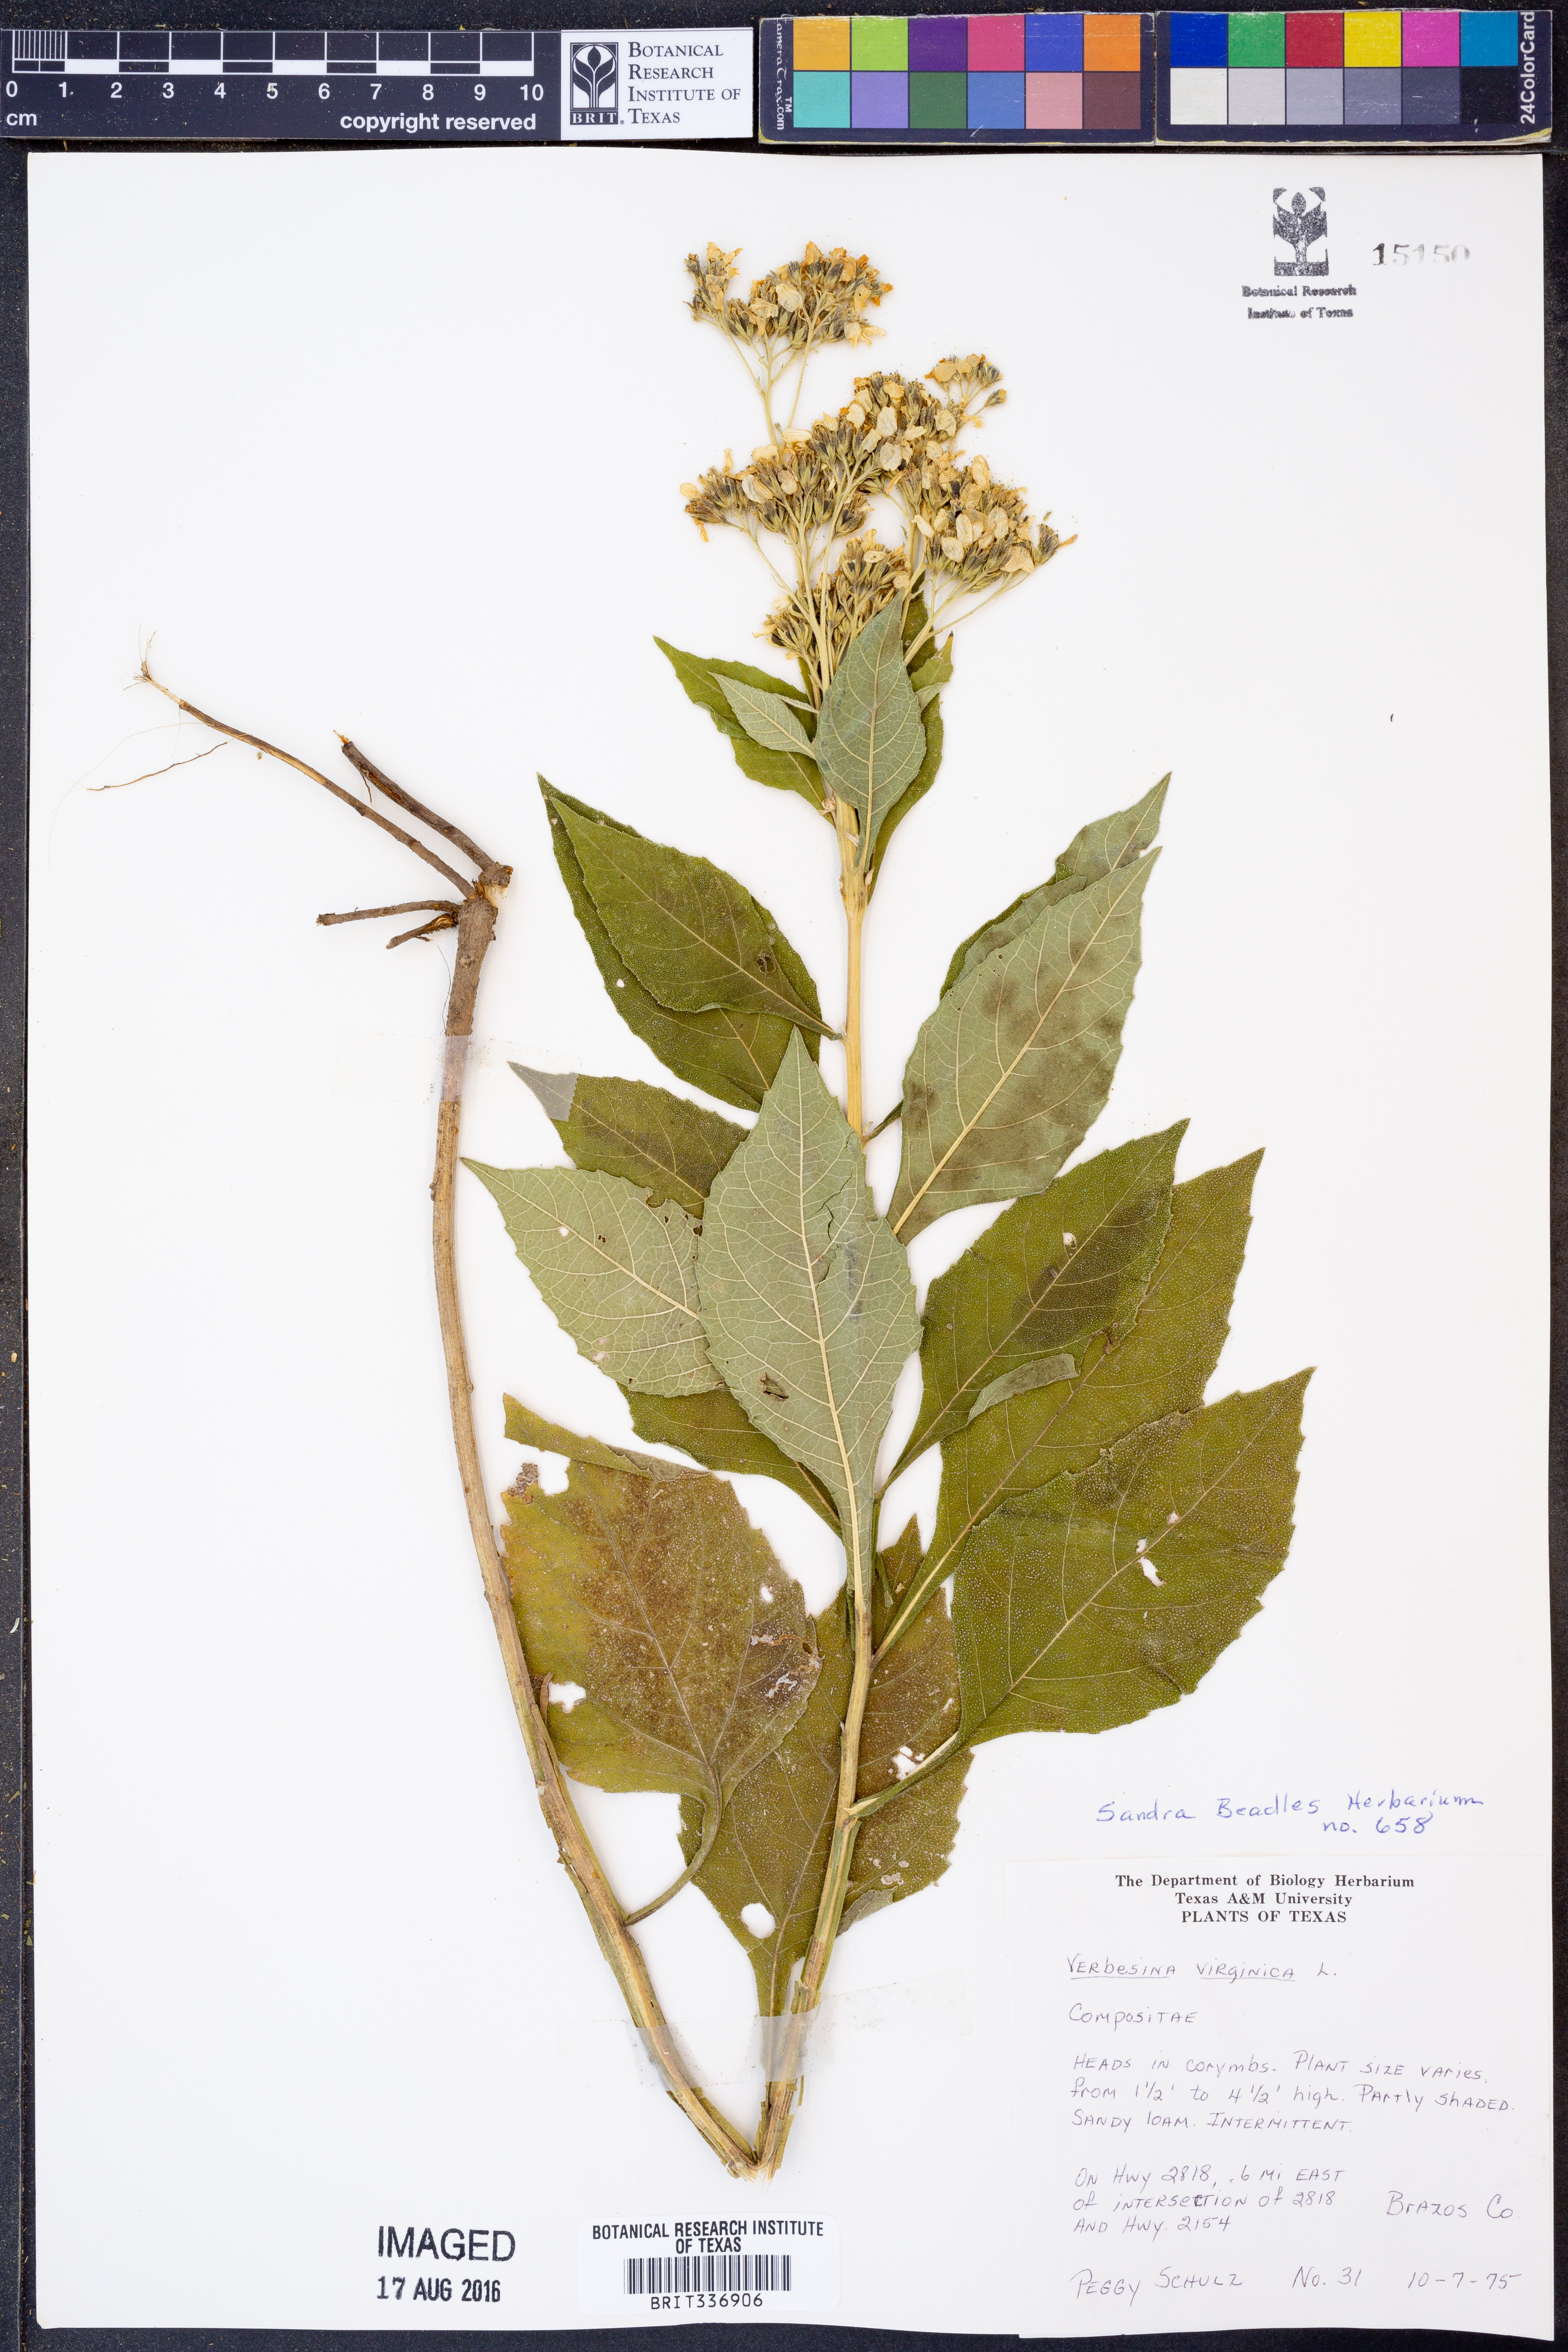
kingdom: Plantae
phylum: Tracheophyta
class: Magnoliopsida
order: Asterales
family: Asteraceae
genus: Verbesina
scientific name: Verbesina virginica
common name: Frostweed
